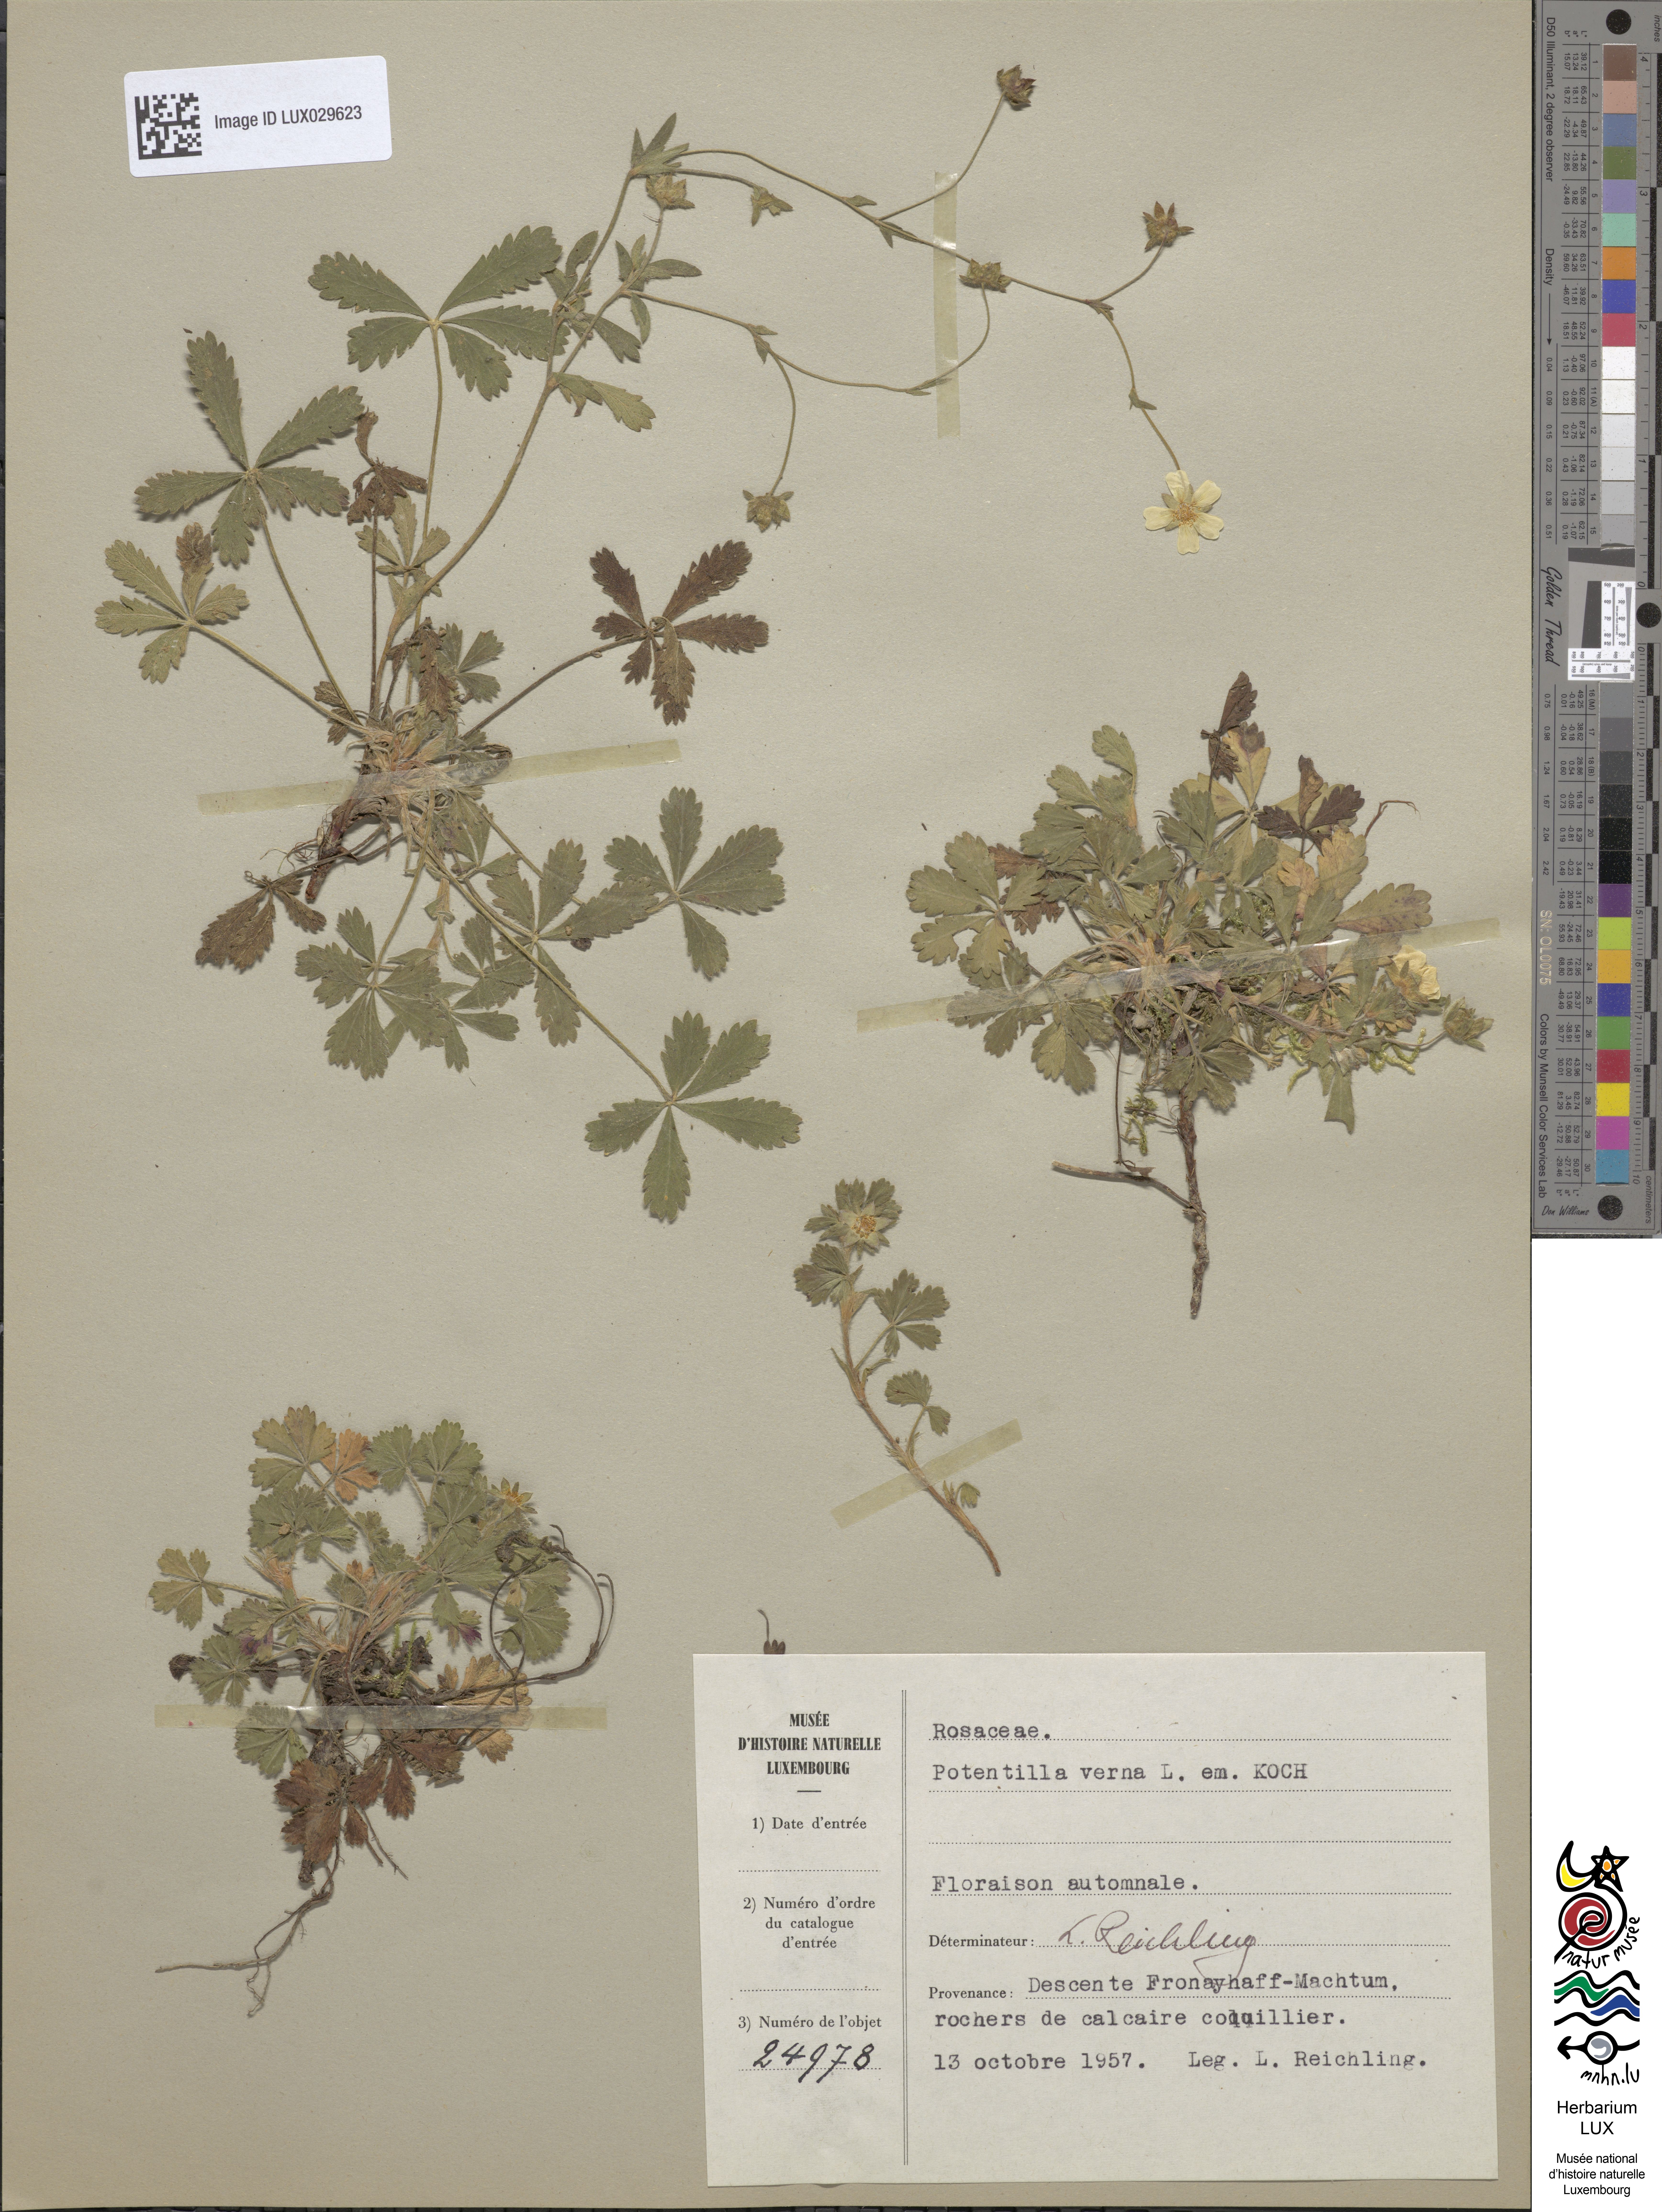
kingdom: Plantae
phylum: Tracheophyta
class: Magnoliopsida
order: Rosales
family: Rosaceae
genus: Potentilla
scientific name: Potentilla verna
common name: Spring cinquefoil
